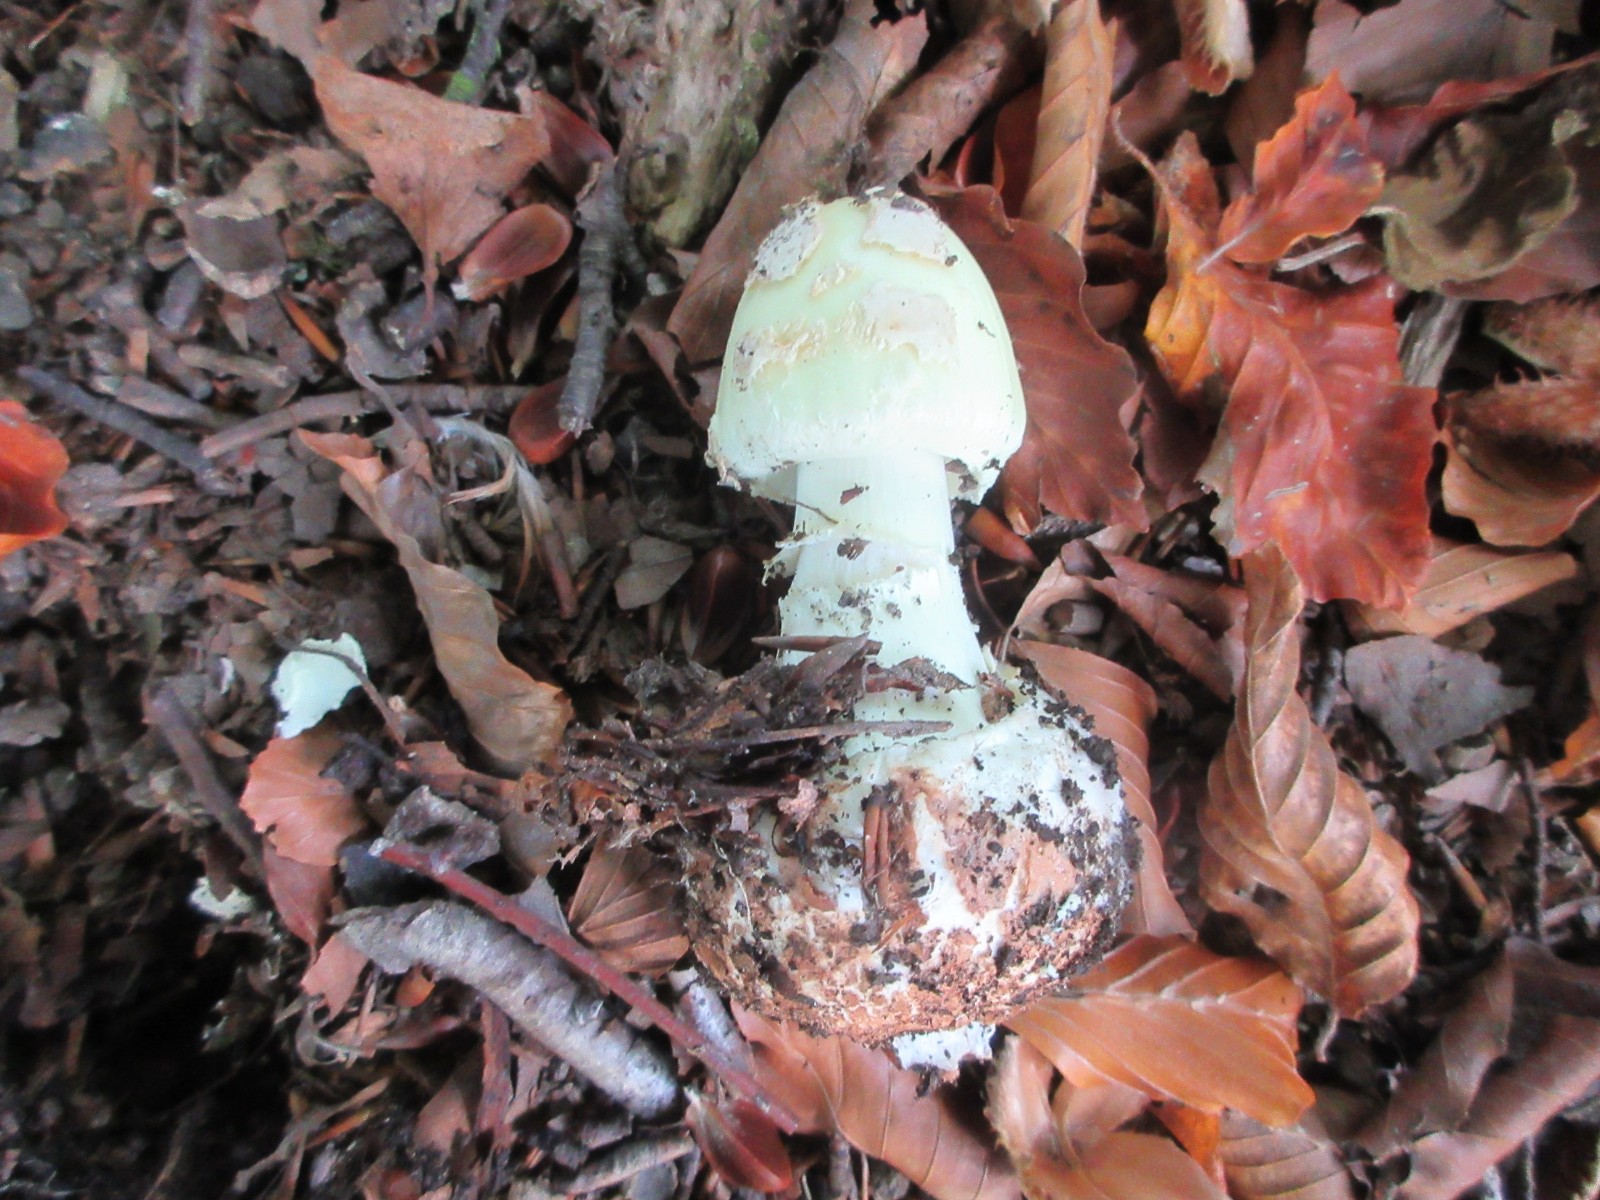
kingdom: Fungi
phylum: Basidiomycota
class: Agaricomycetes
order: Agaricales
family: Amanitaceae
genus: Amanita
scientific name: Amanita citrina
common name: kugleknoldet fluesvamp
